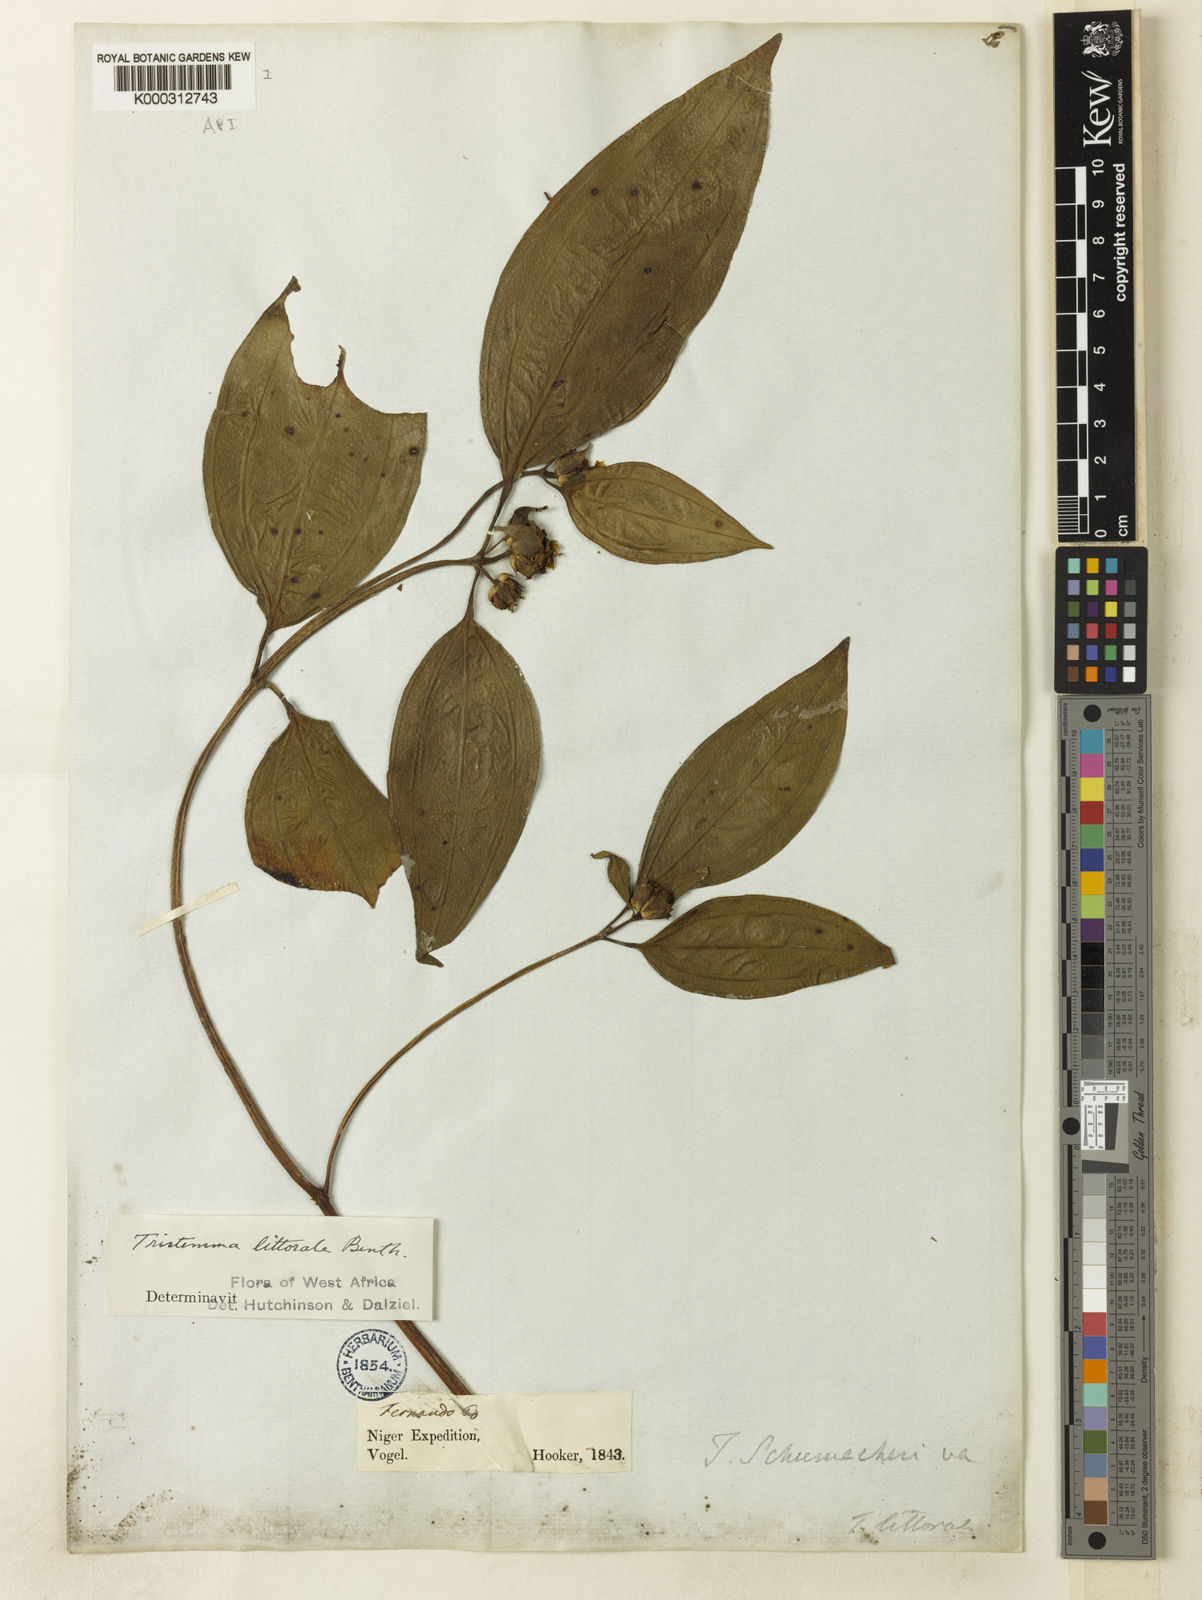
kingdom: Plantae
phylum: Tracheophyta
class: Magnoliopsida
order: Myrtales
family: Melastomataceae
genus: Tristemma
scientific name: Tristemma littorale
